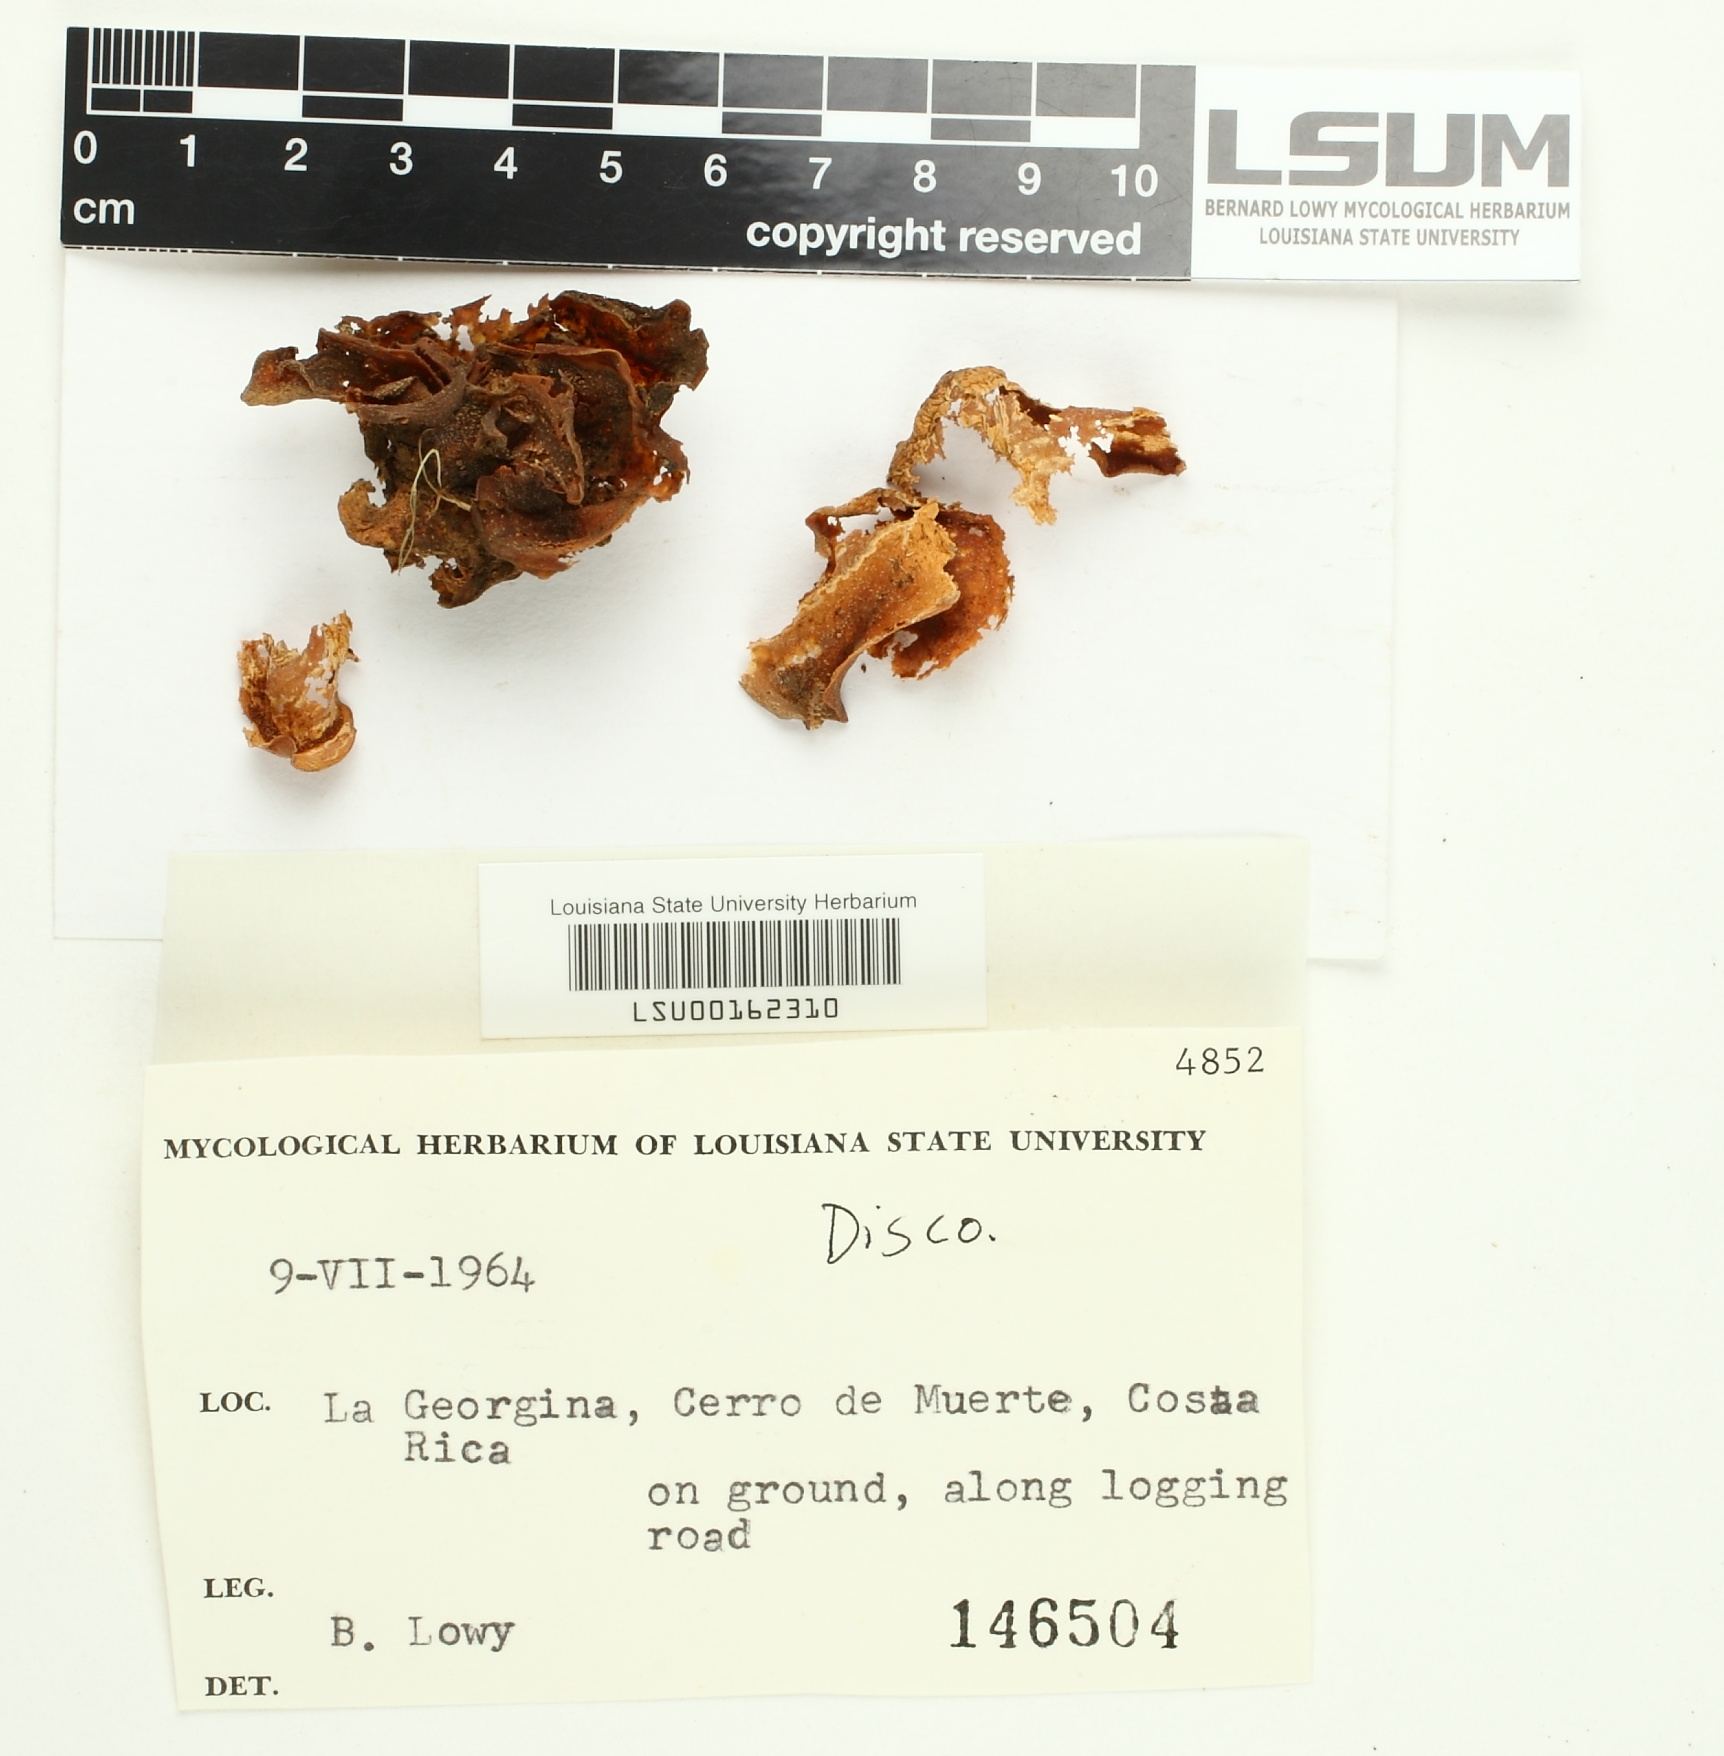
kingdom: Fungi
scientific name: Fungi
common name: Fungi
